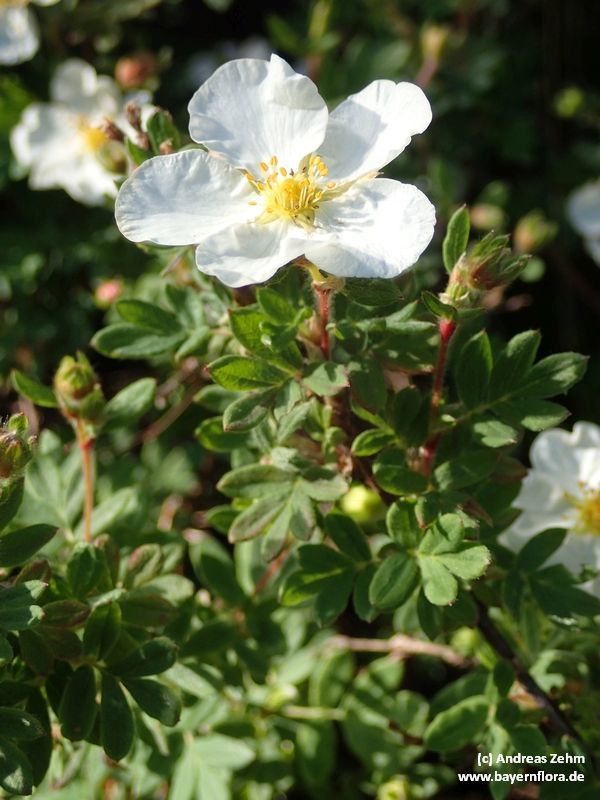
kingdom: Plantae
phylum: Tracheophyta
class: Magnoliopsida
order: Rosales
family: Rosaceae
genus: Dasiphora
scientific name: Dasiphora fruticosa
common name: Shrubby cinquefoil
